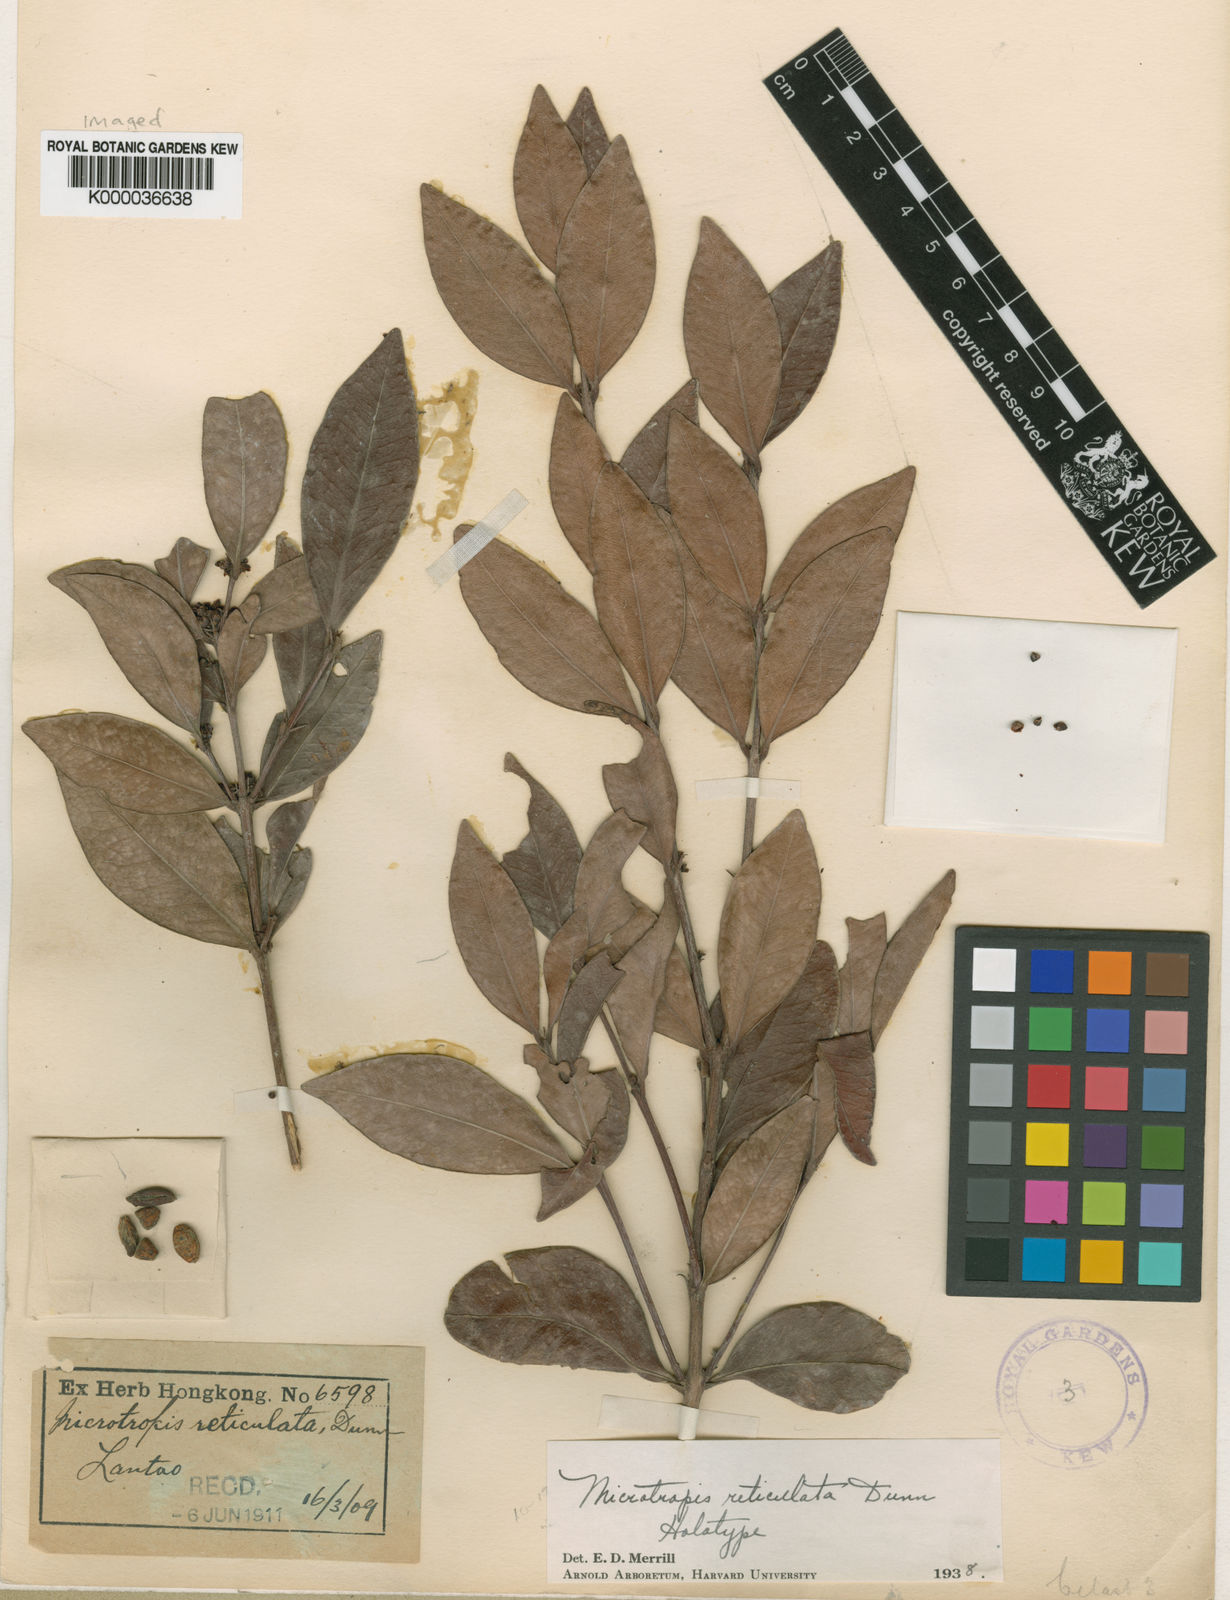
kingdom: Plantae
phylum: Tracheophyta
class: Magnoliopsida
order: Celastrales
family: Celastraceae
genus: Microtropis
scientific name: Microtropis reticulata
